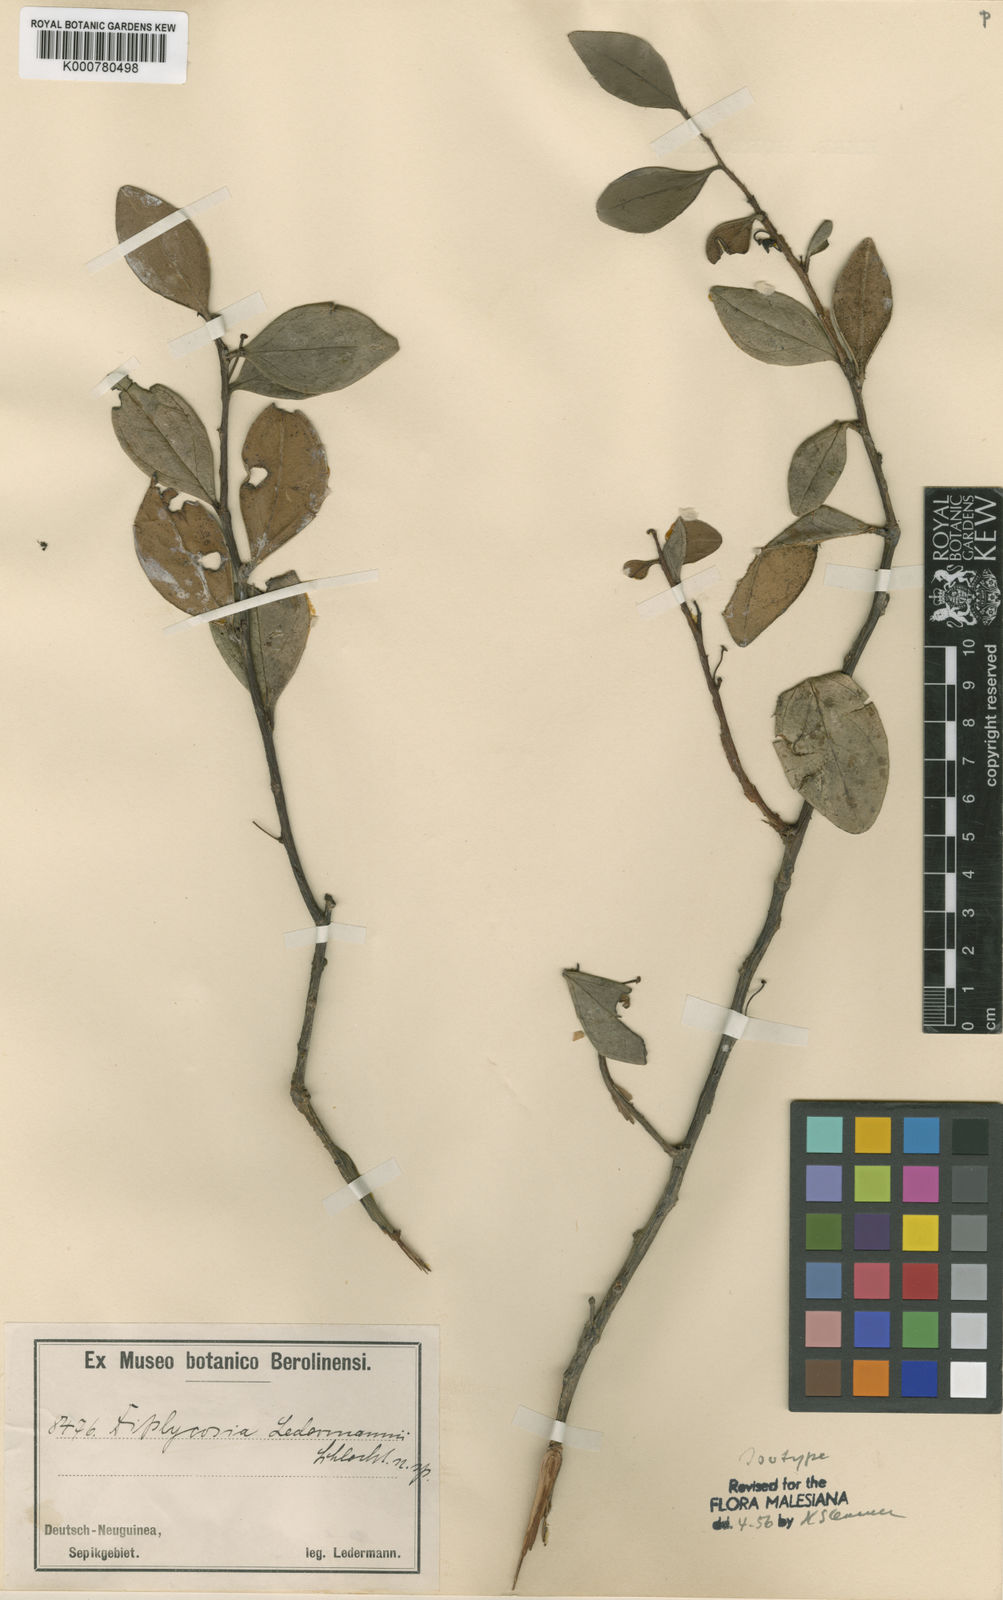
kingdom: Plantae
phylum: Tracheophyta
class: Magnoliopsida
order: Ericales
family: Ericaceae
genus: Gaultheria
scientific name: Gaultheria ledermannii
